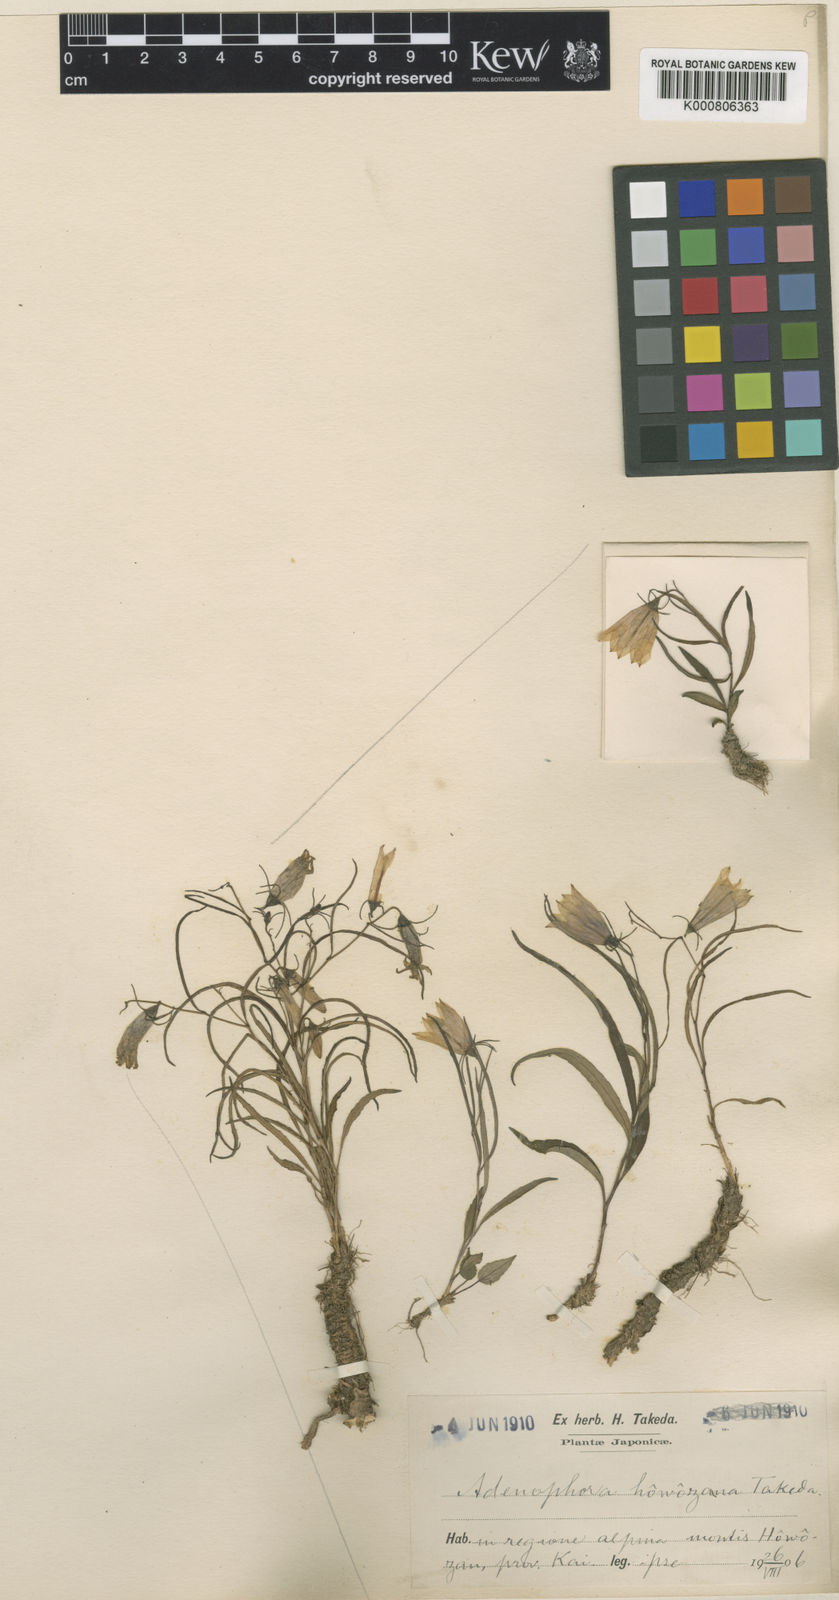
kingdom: Plantae
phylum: Tracheophyta
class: Magnoliopsida
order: Asterales
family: Campanulaceae
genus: Adenophora
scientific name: Adenophora takedae
